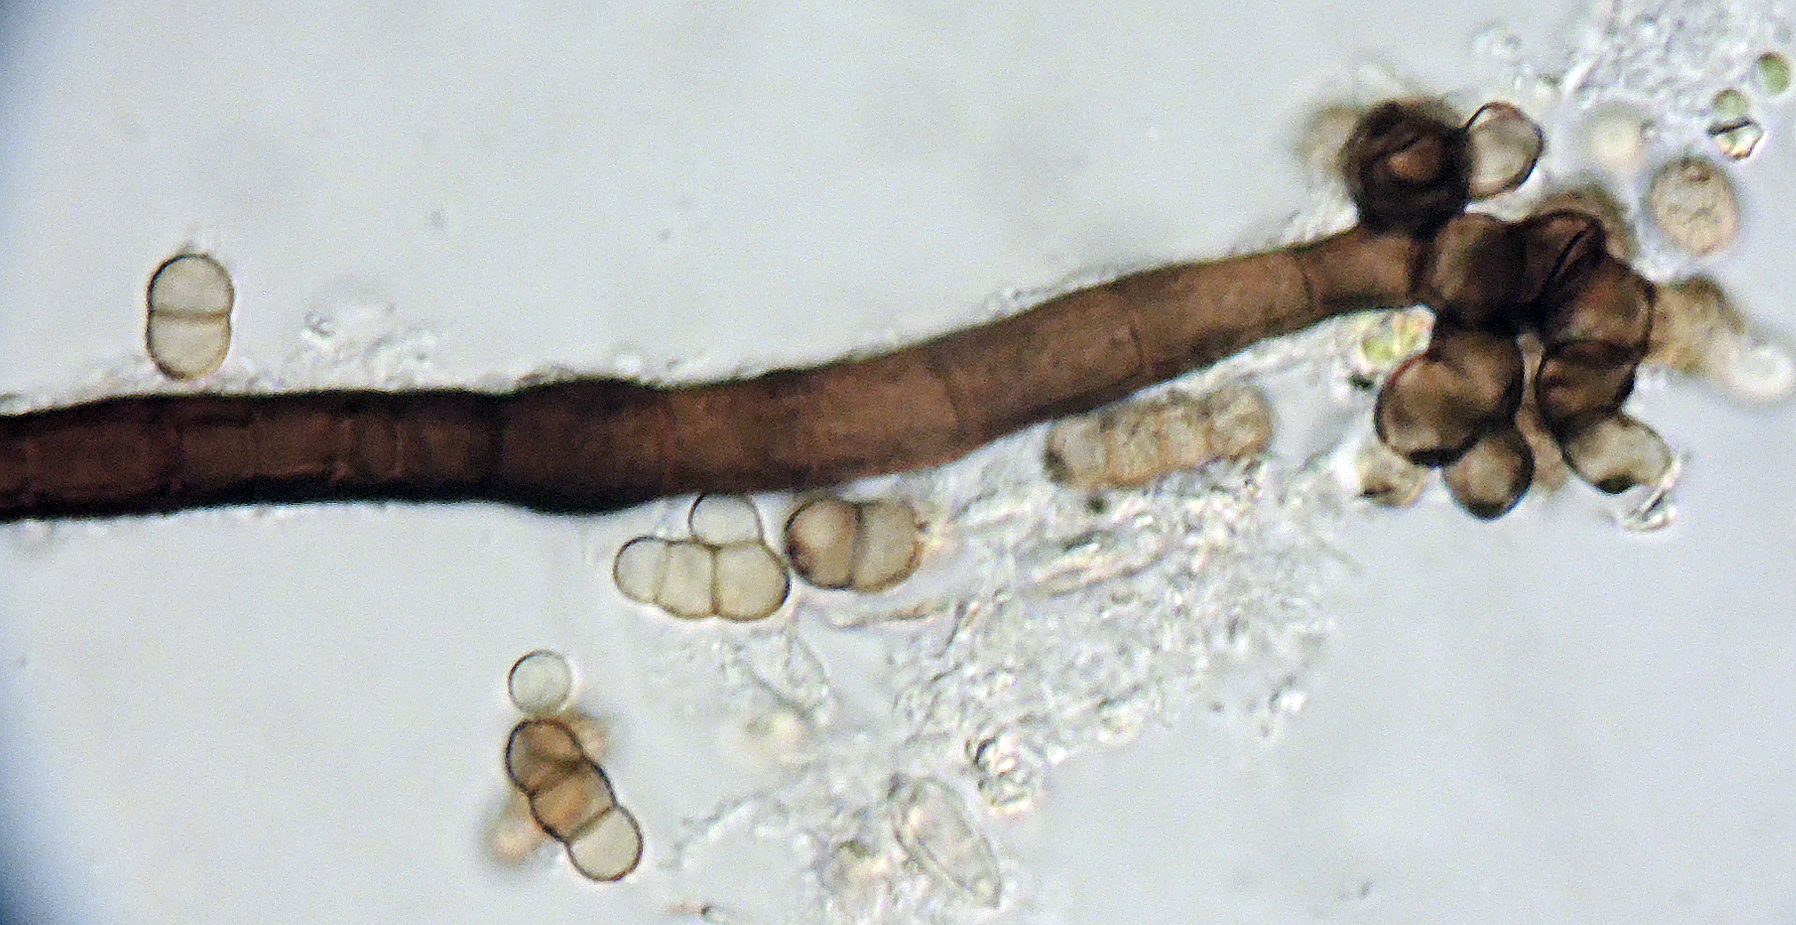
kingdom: Fungi
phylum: Ascomycota
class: Dothideomycetes
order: Pleosporales
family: Torulaceae
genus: Dendryphion
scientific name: Dendryphion comosum
